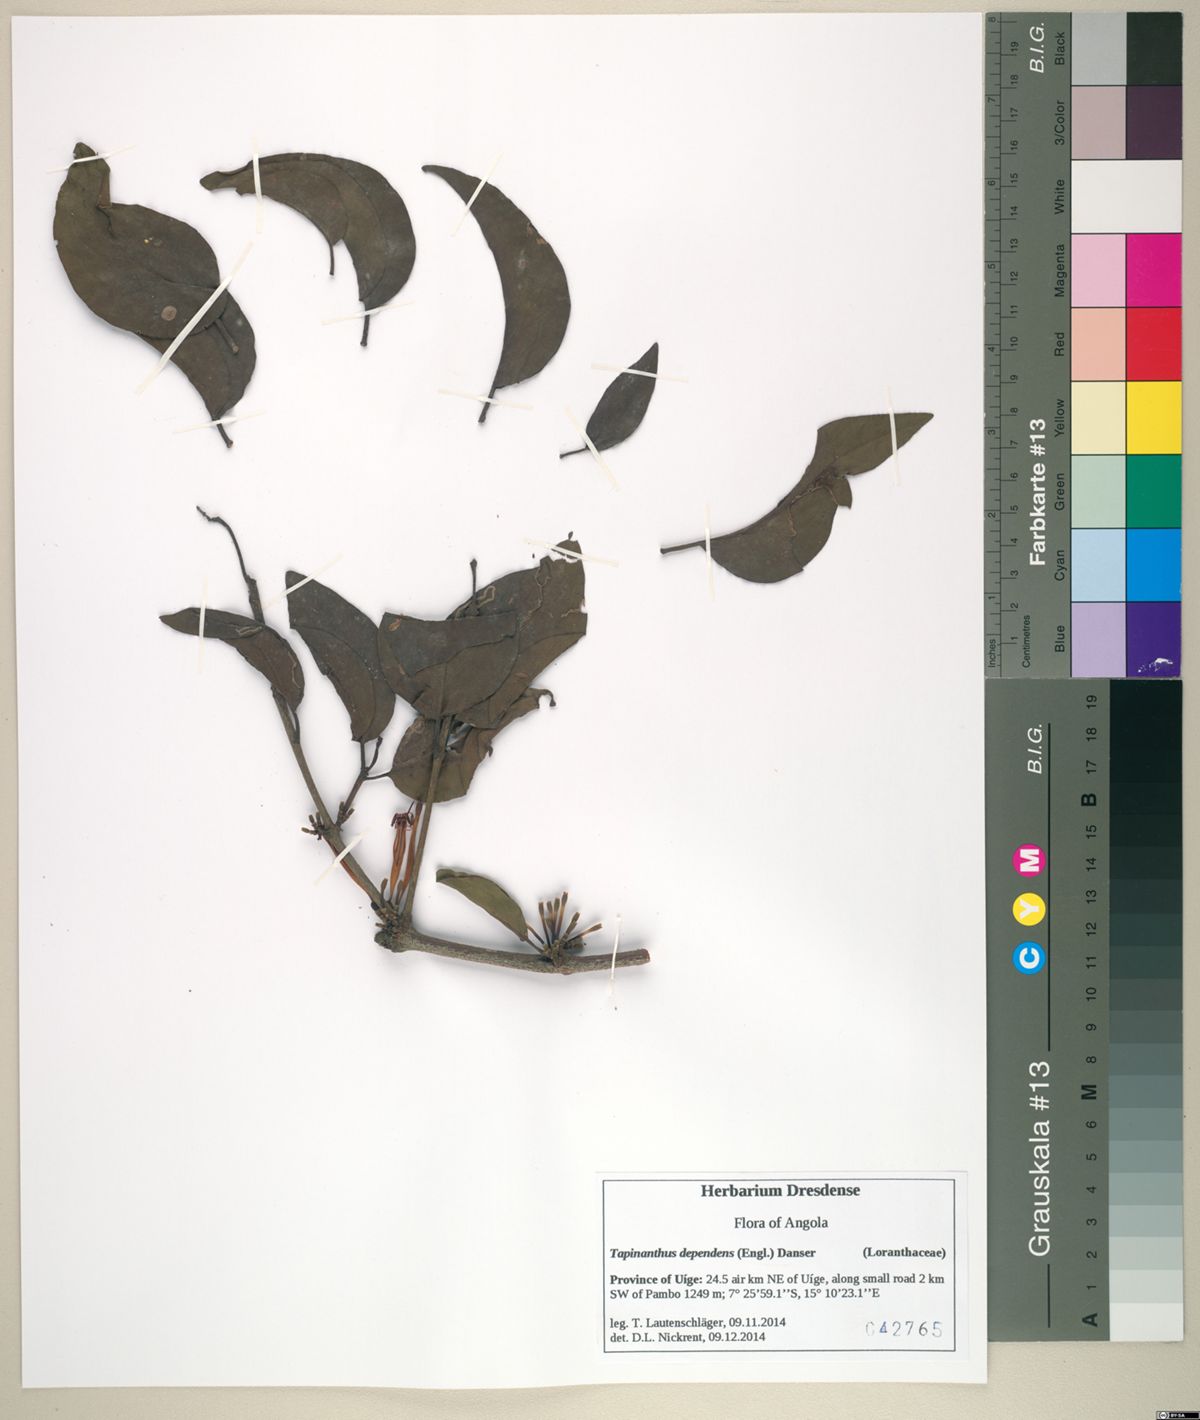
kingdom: Plantae
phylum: Tracheophyta
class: Magnoliopsida
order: Santalales
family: Loranthaceae
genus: Tapinanthus
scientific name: Tapinanthus dependens
